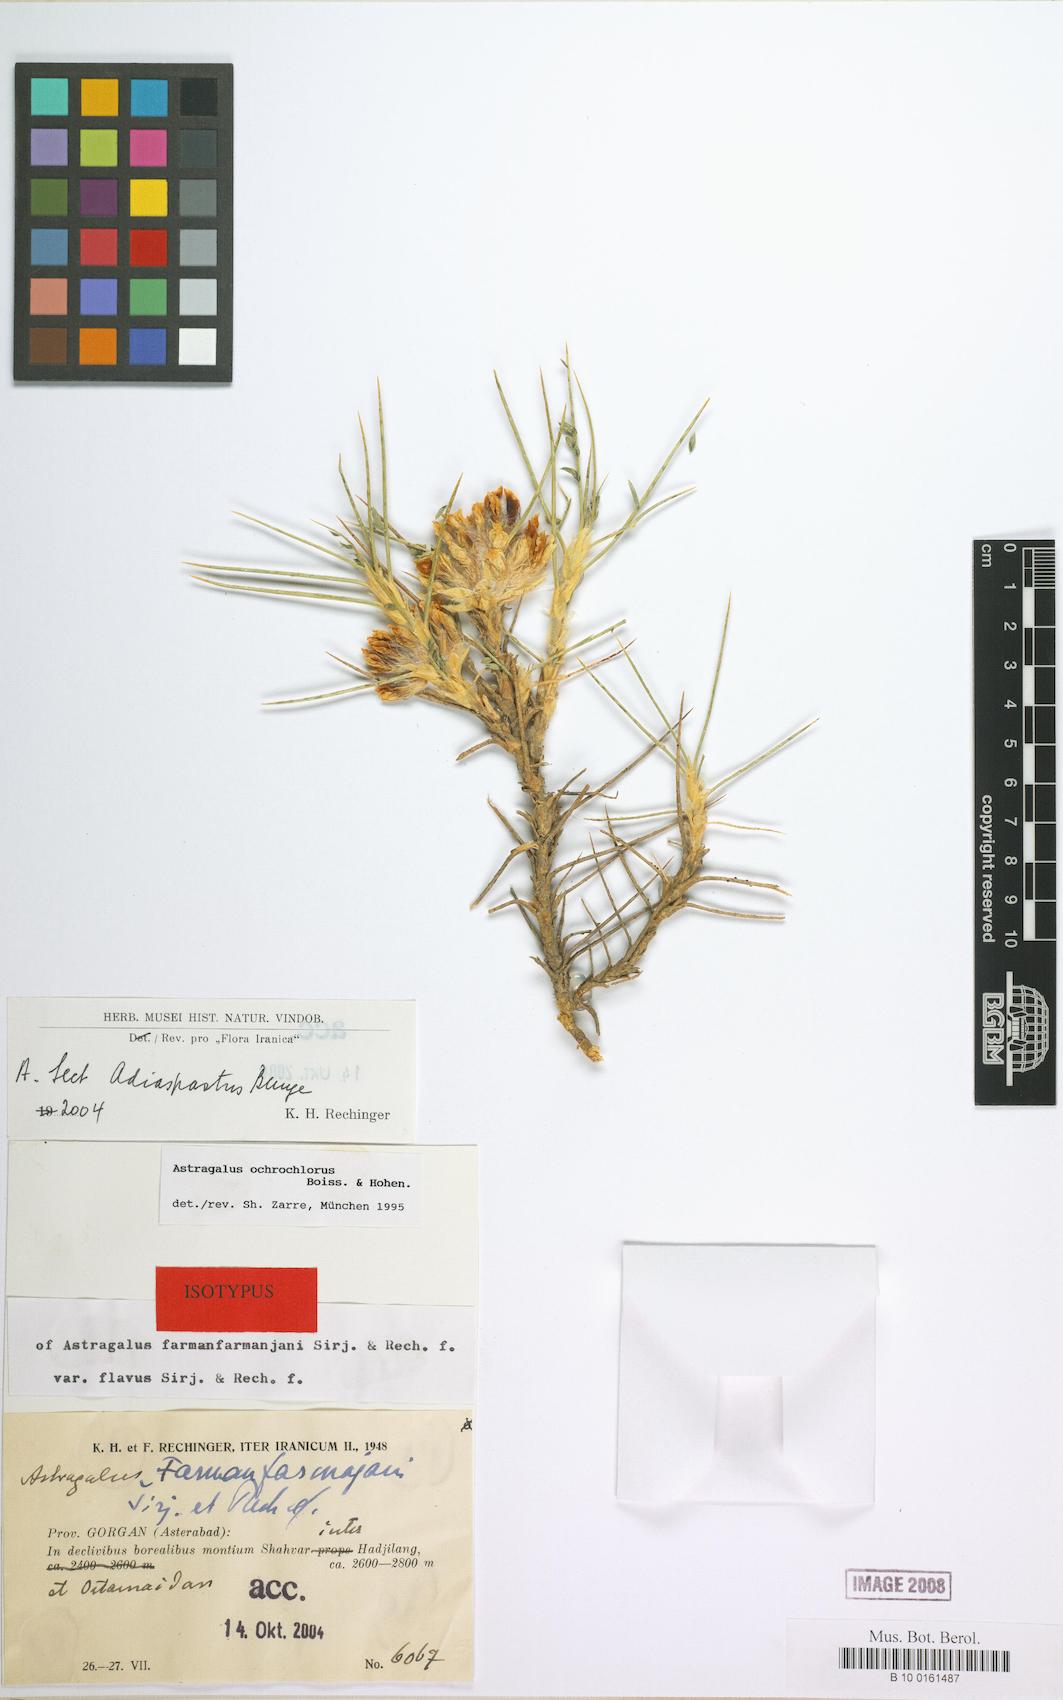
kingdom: Plantae
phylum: Tracheophyta
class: Magnoliopsida
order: Fabales
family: Fabaceae
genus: Astragalus
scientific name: Astragalus ochrochlorus
